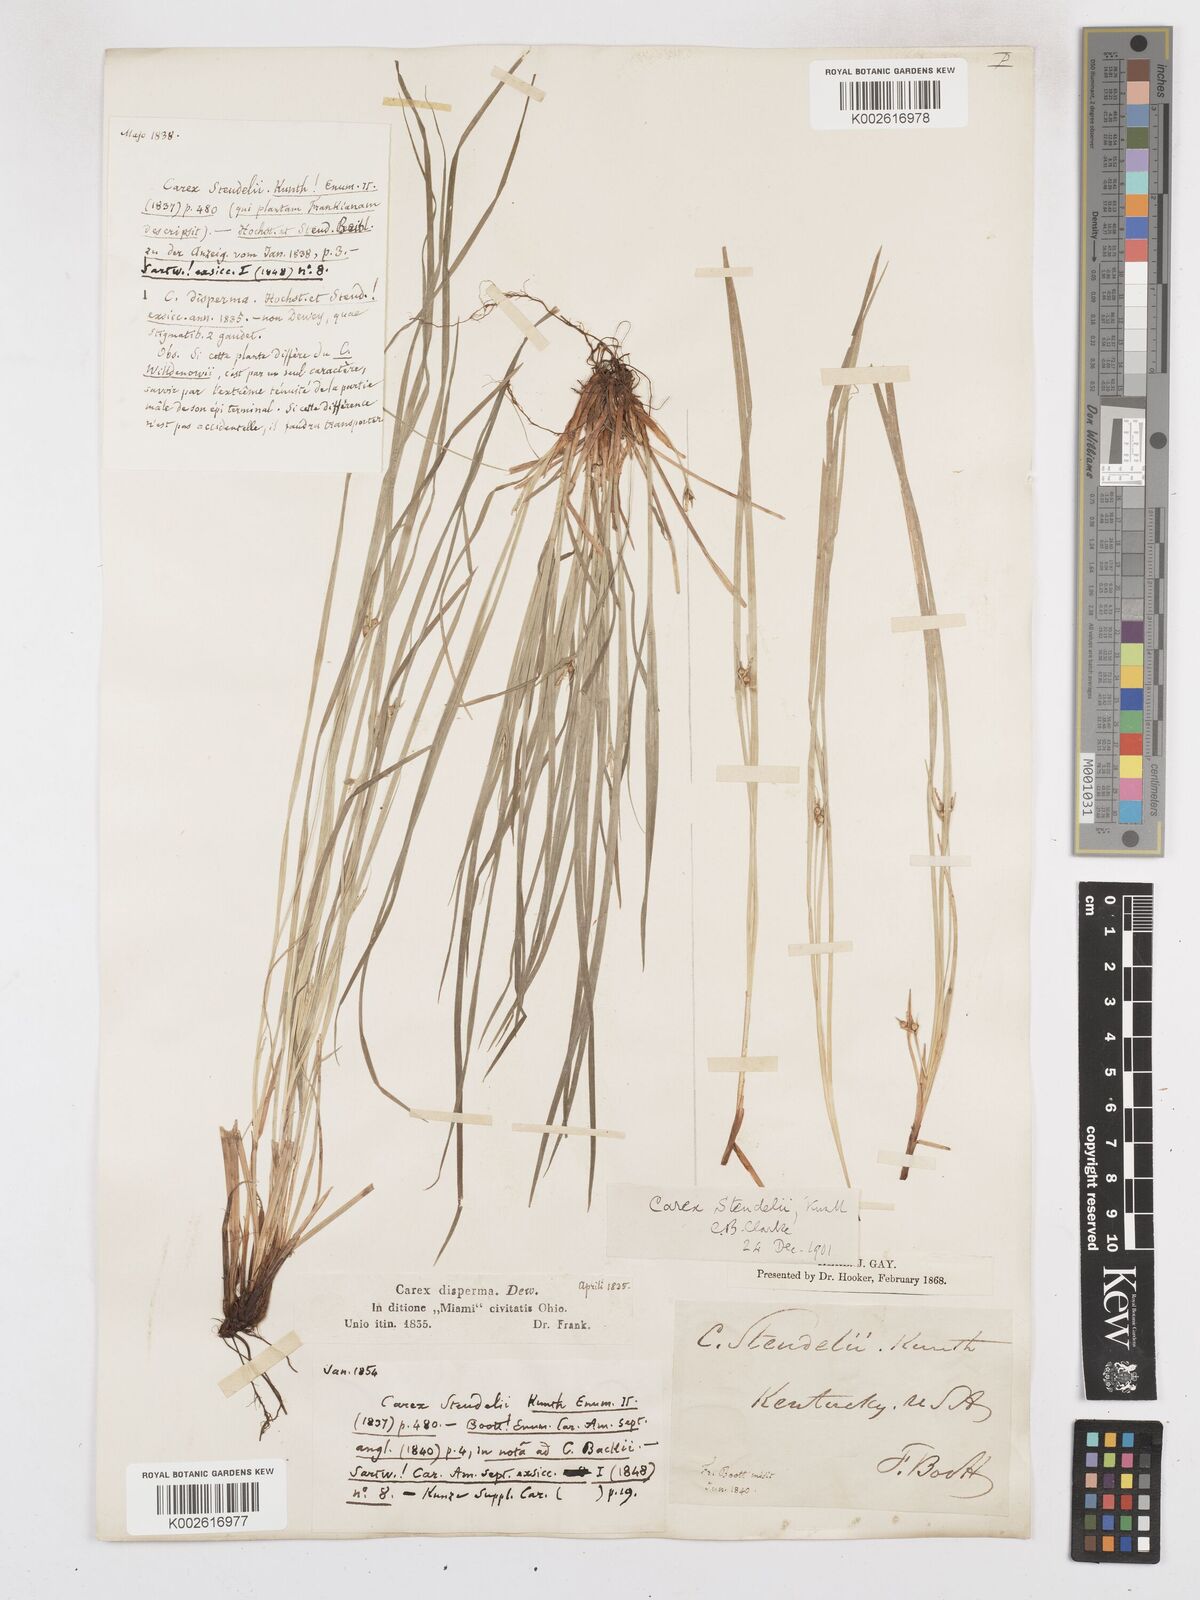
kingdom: Plantae
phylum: Tracheophyta
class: Liliopsida
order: Poales
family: Cyperaceae
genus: Carex
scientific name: Carex jamesii
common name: Grass sedge
